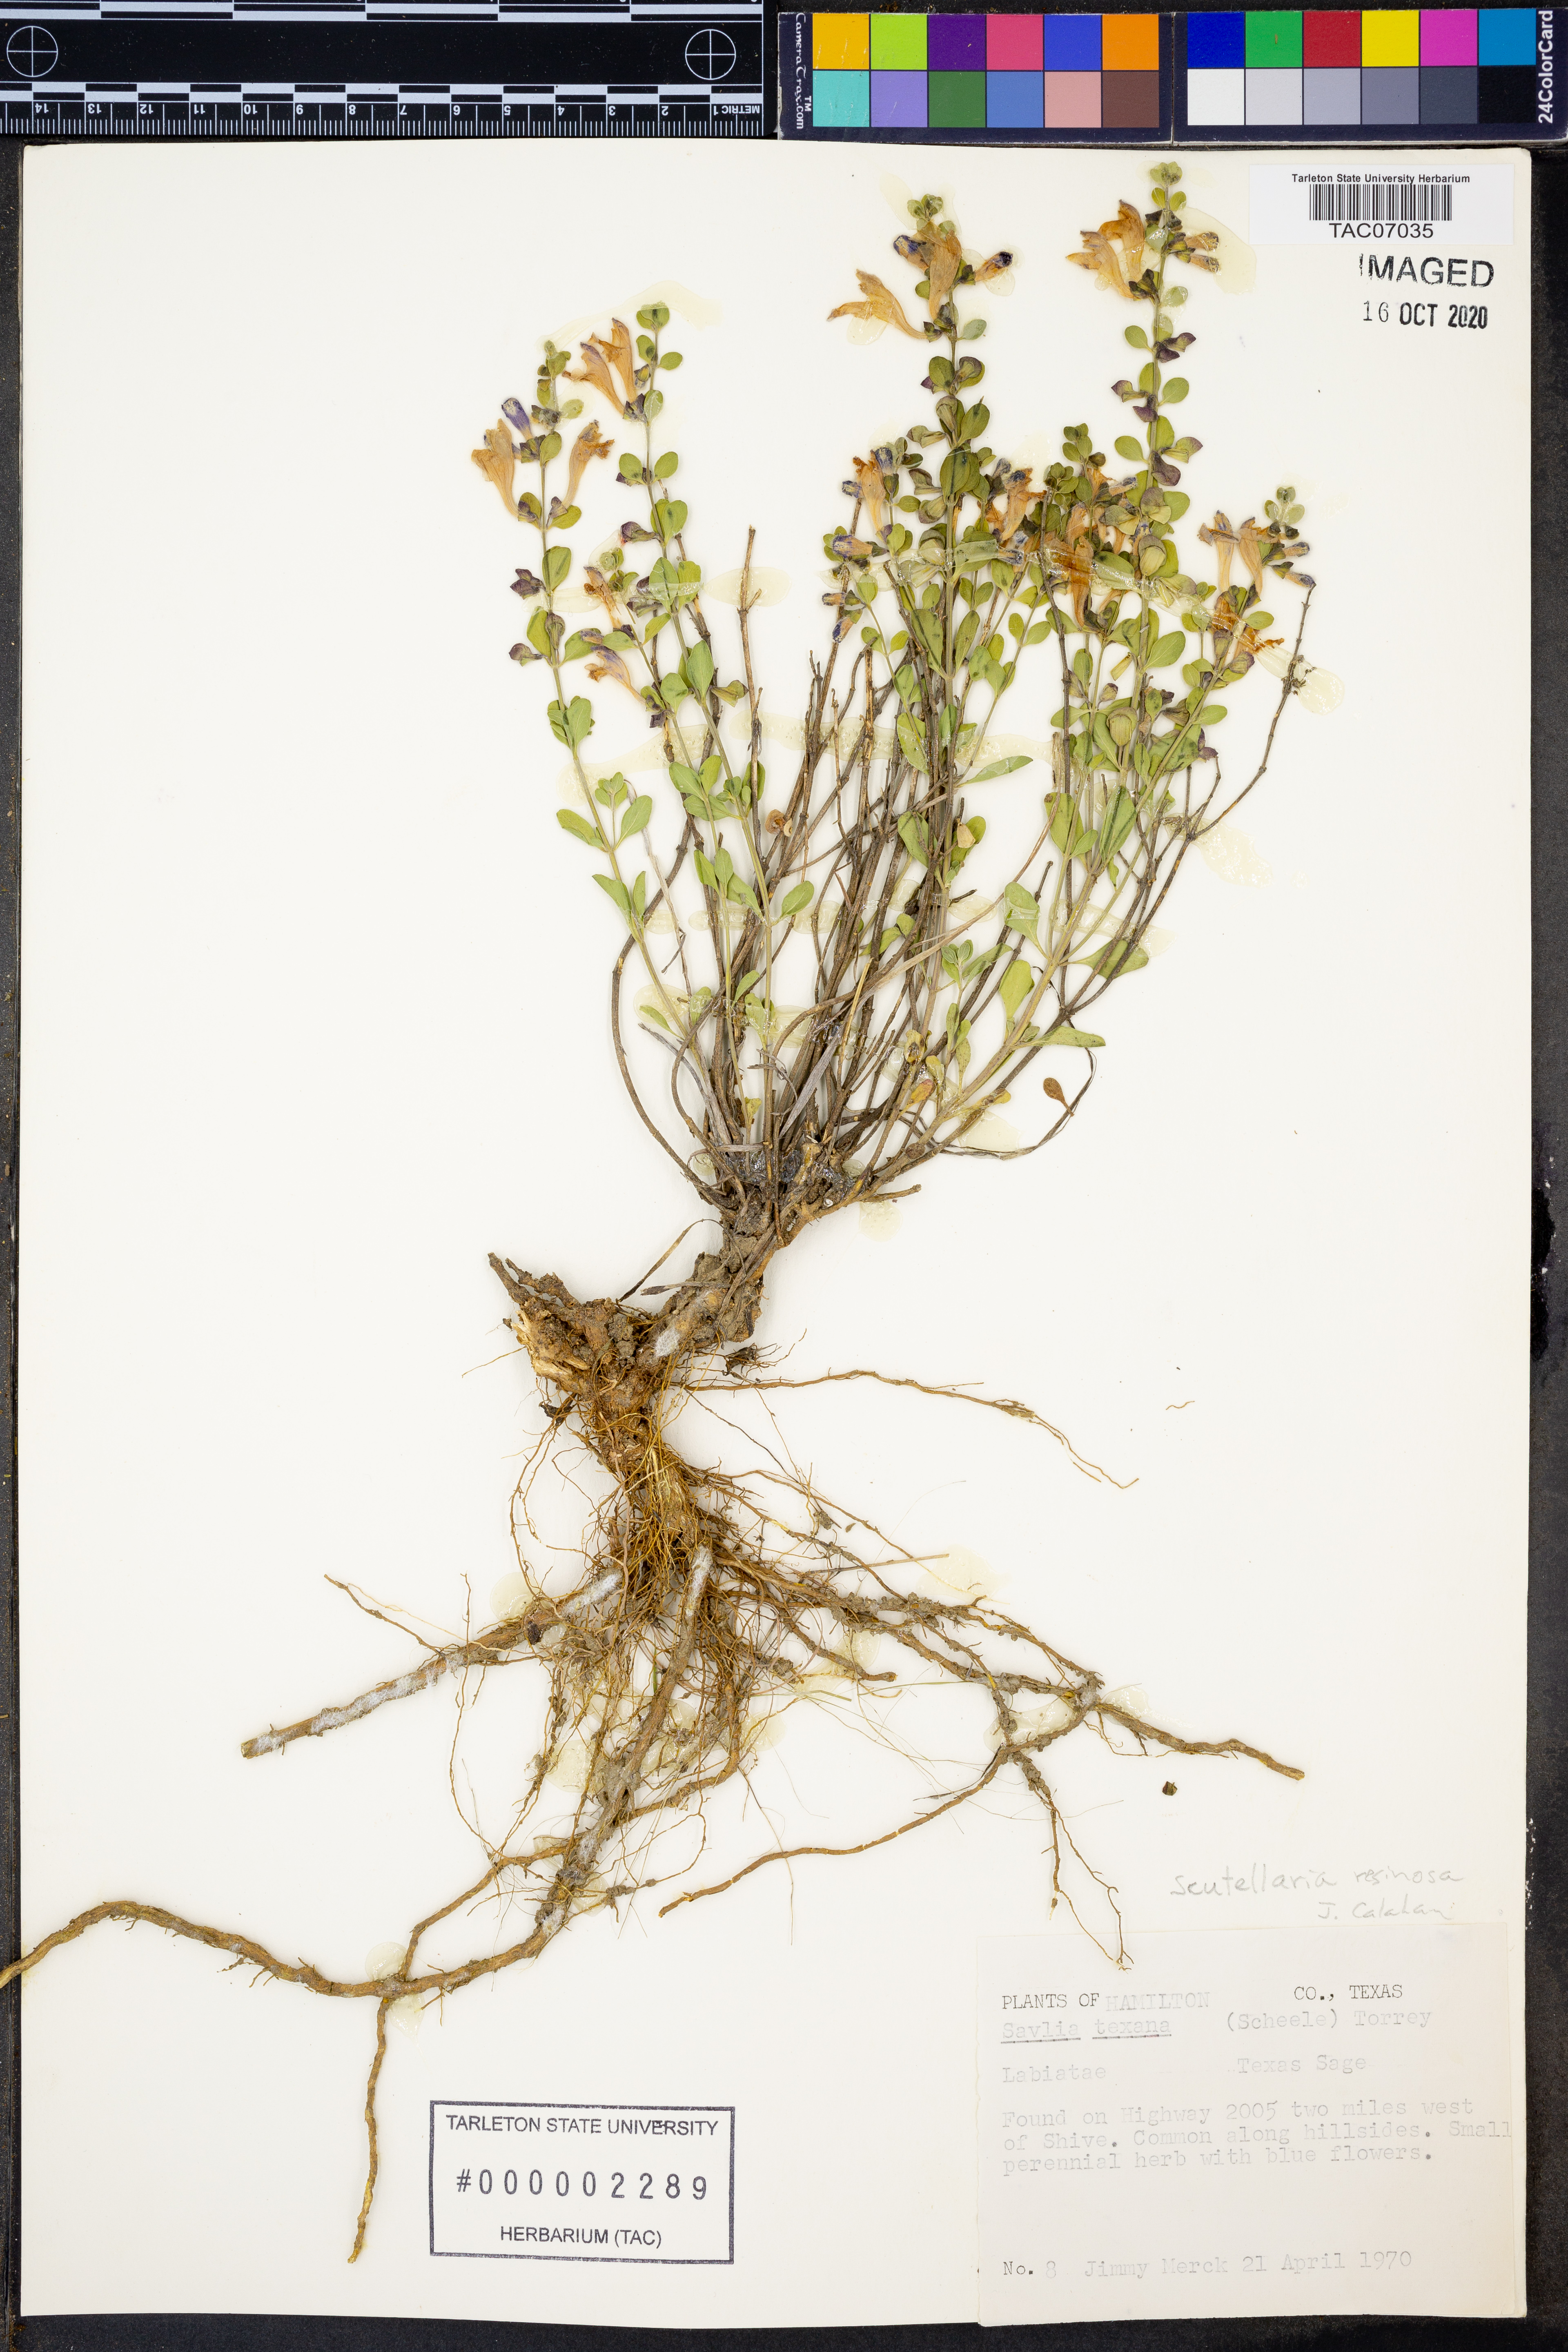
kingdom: Plantae
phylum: Tracheophyta
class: Magnoliopsida
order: Lamiales
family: Lamiaceae
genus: Scutellaria
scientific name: Scutellaria resinosa
